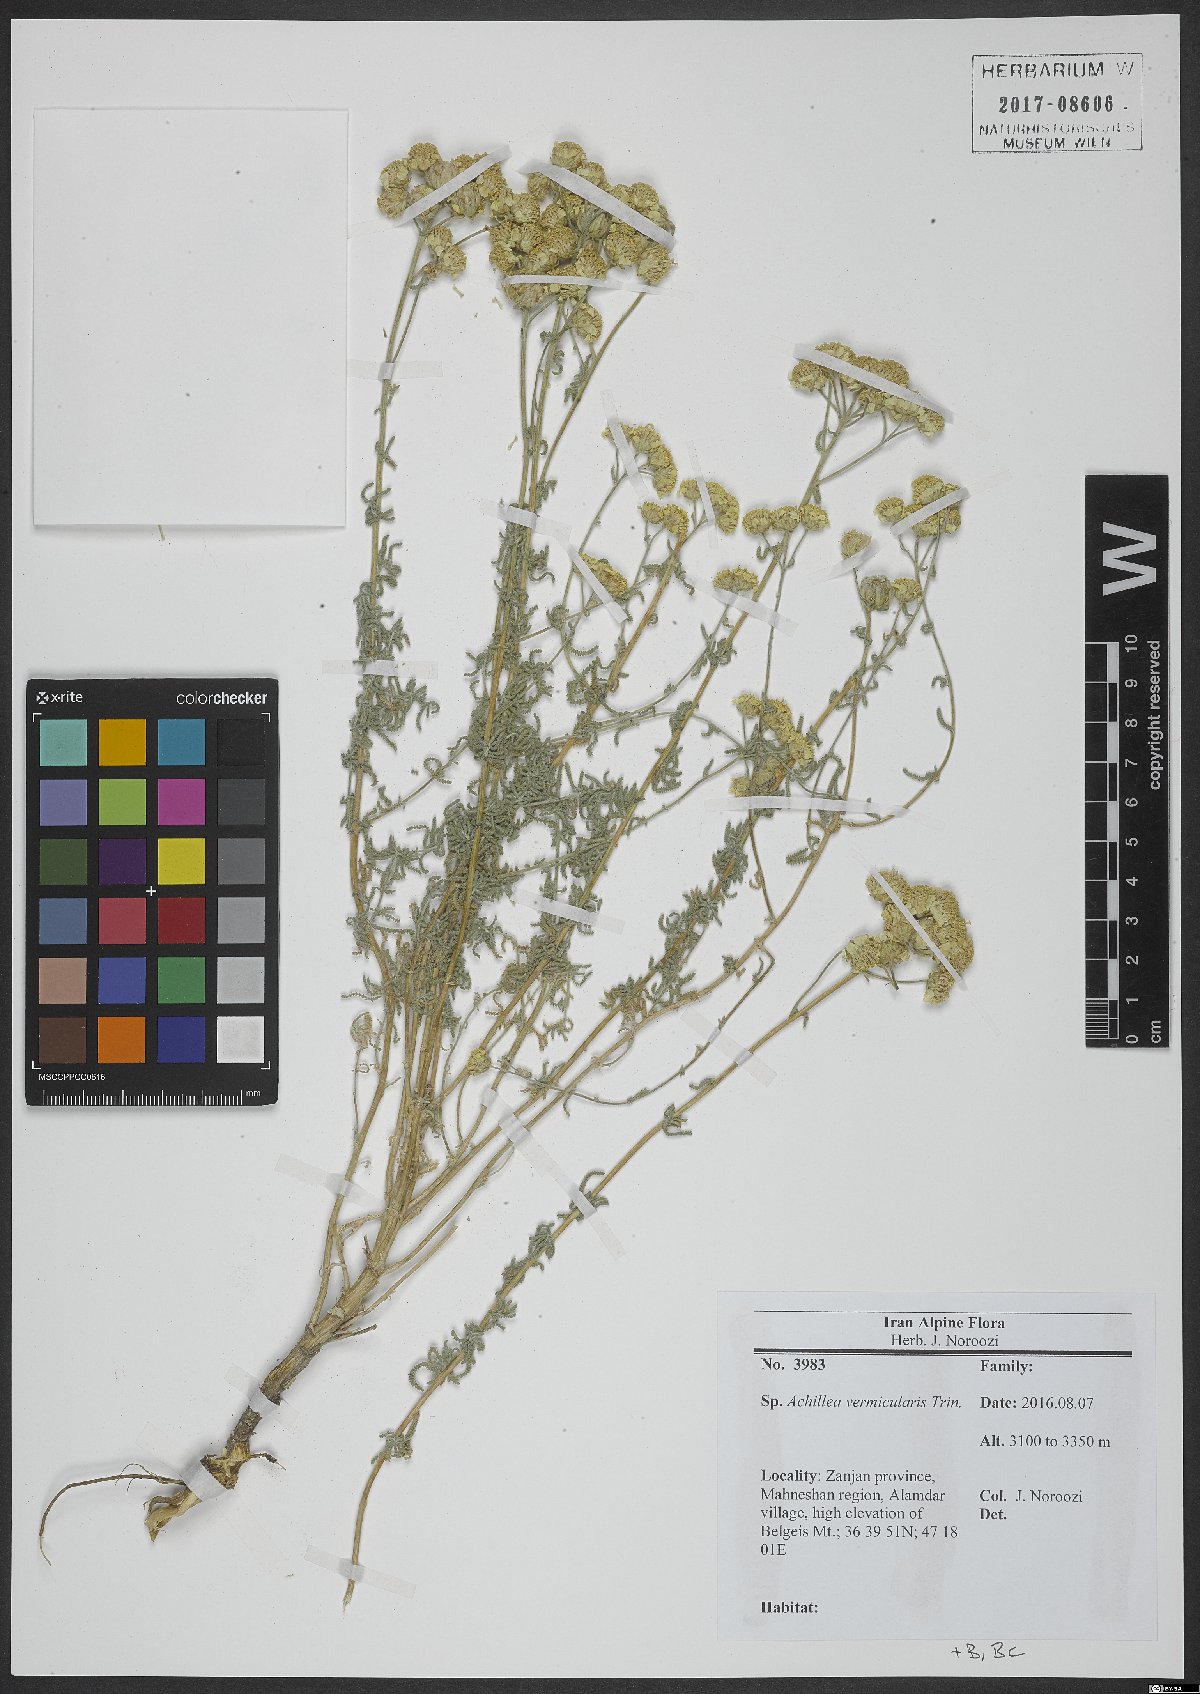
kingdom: Plantae
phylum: Tracheophyta
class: Magnoliopsida
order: Asterales
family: Asteraceae
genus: Achillea
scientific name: Achillea vermicularis
